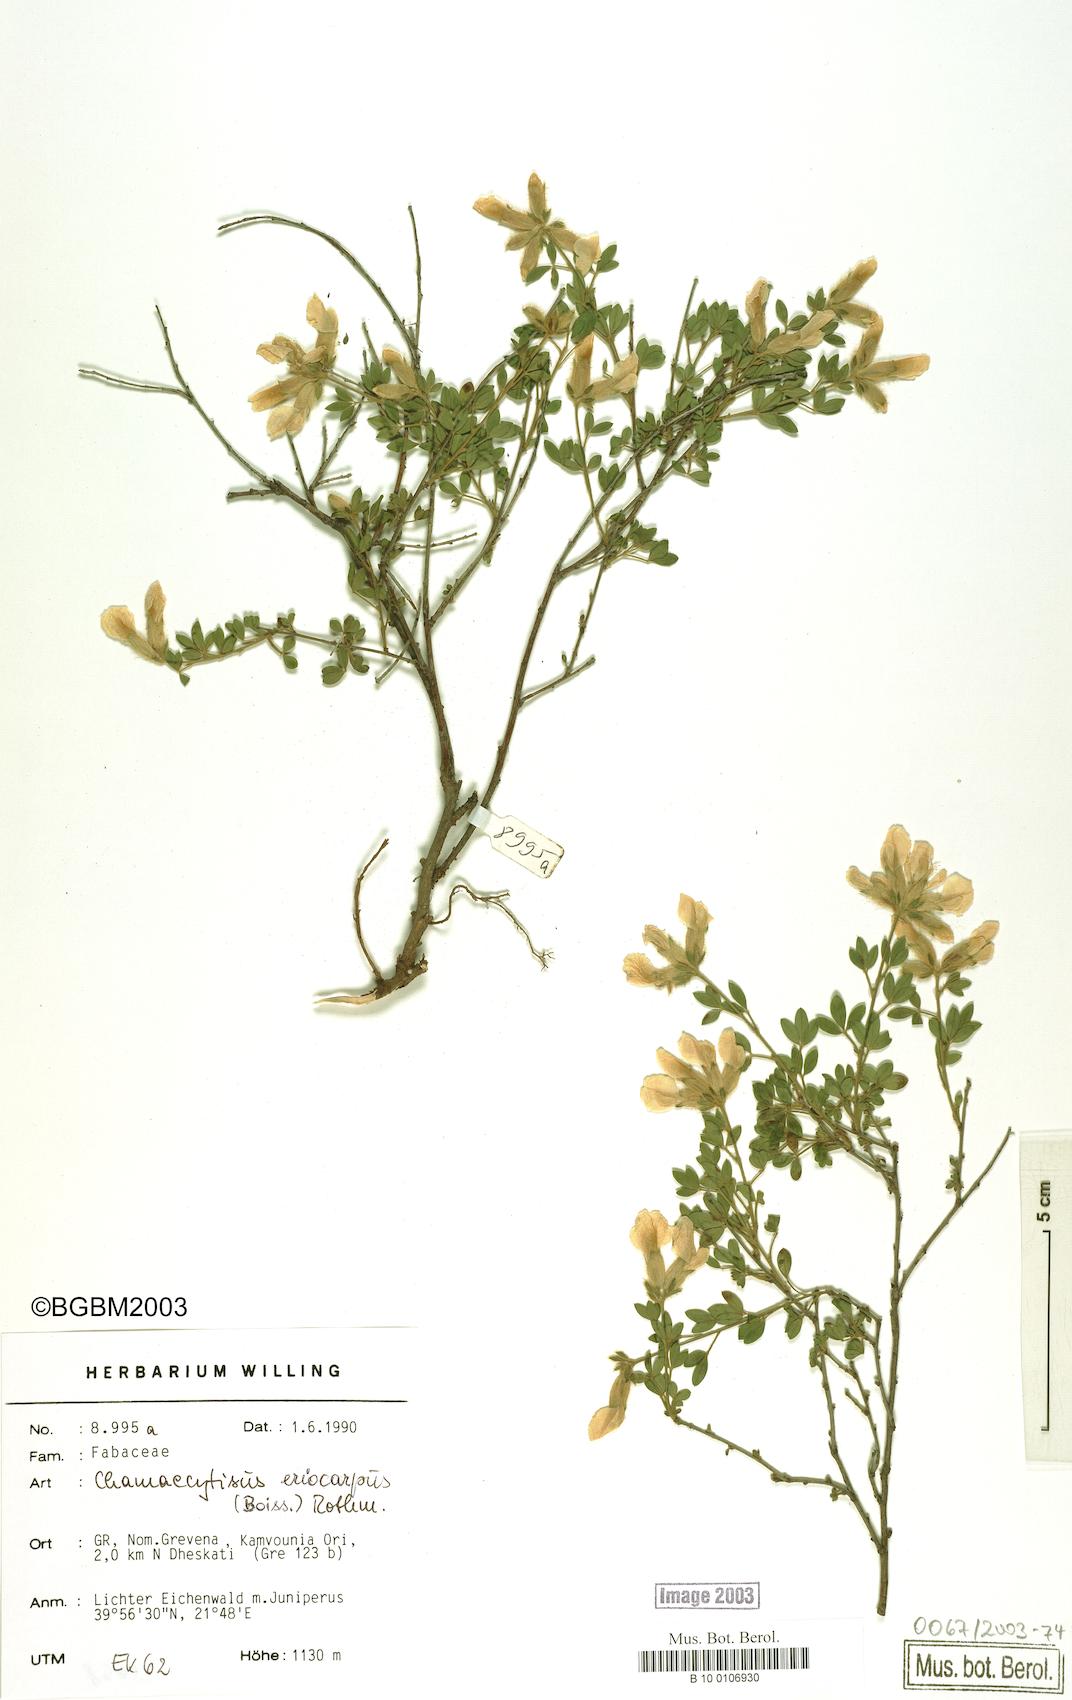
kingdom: Plantae
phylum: Tracheophyta
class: Magnoliopsida
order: Fabales
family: Fabaceae
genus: Chamaecytisus
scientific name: Chamaecytisus eriocarpus
